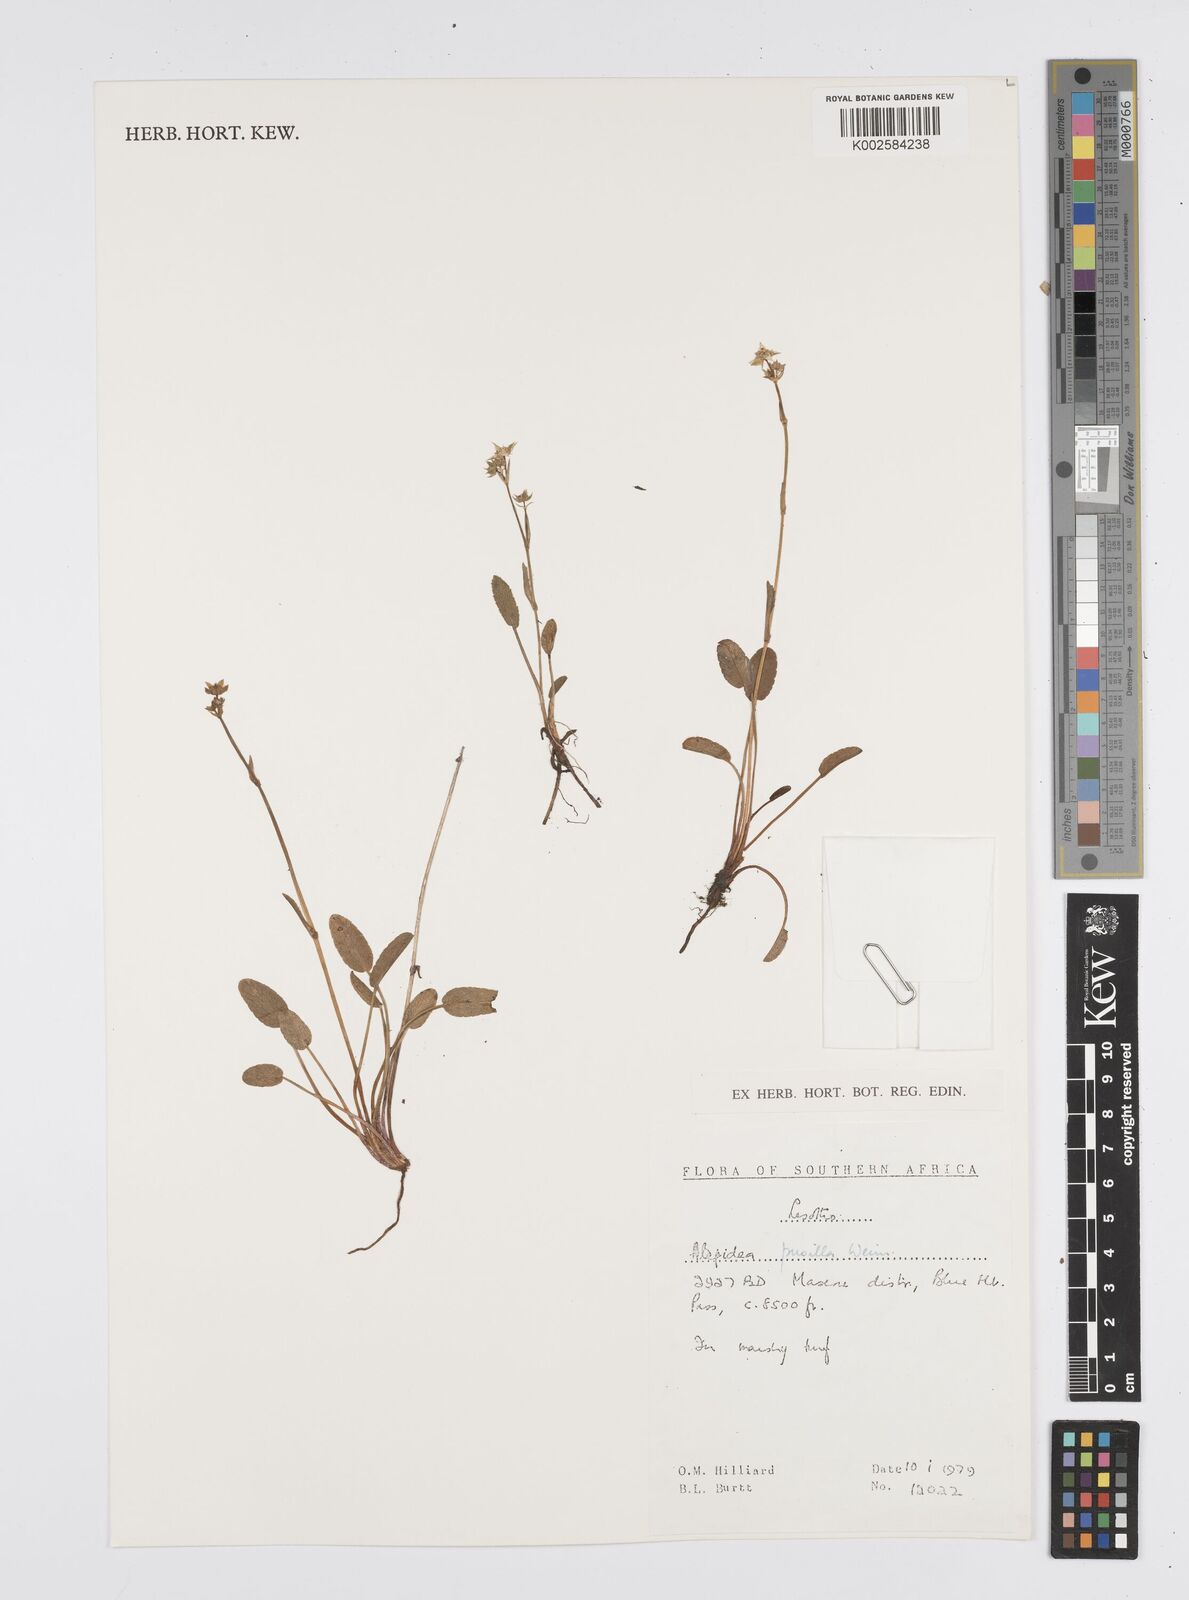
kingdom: Plantae
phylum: Tracheophyta
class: Magnoliopsida
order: Apiales
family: Apiaceae
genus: Alepidea
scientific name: Alepidea pusilla
